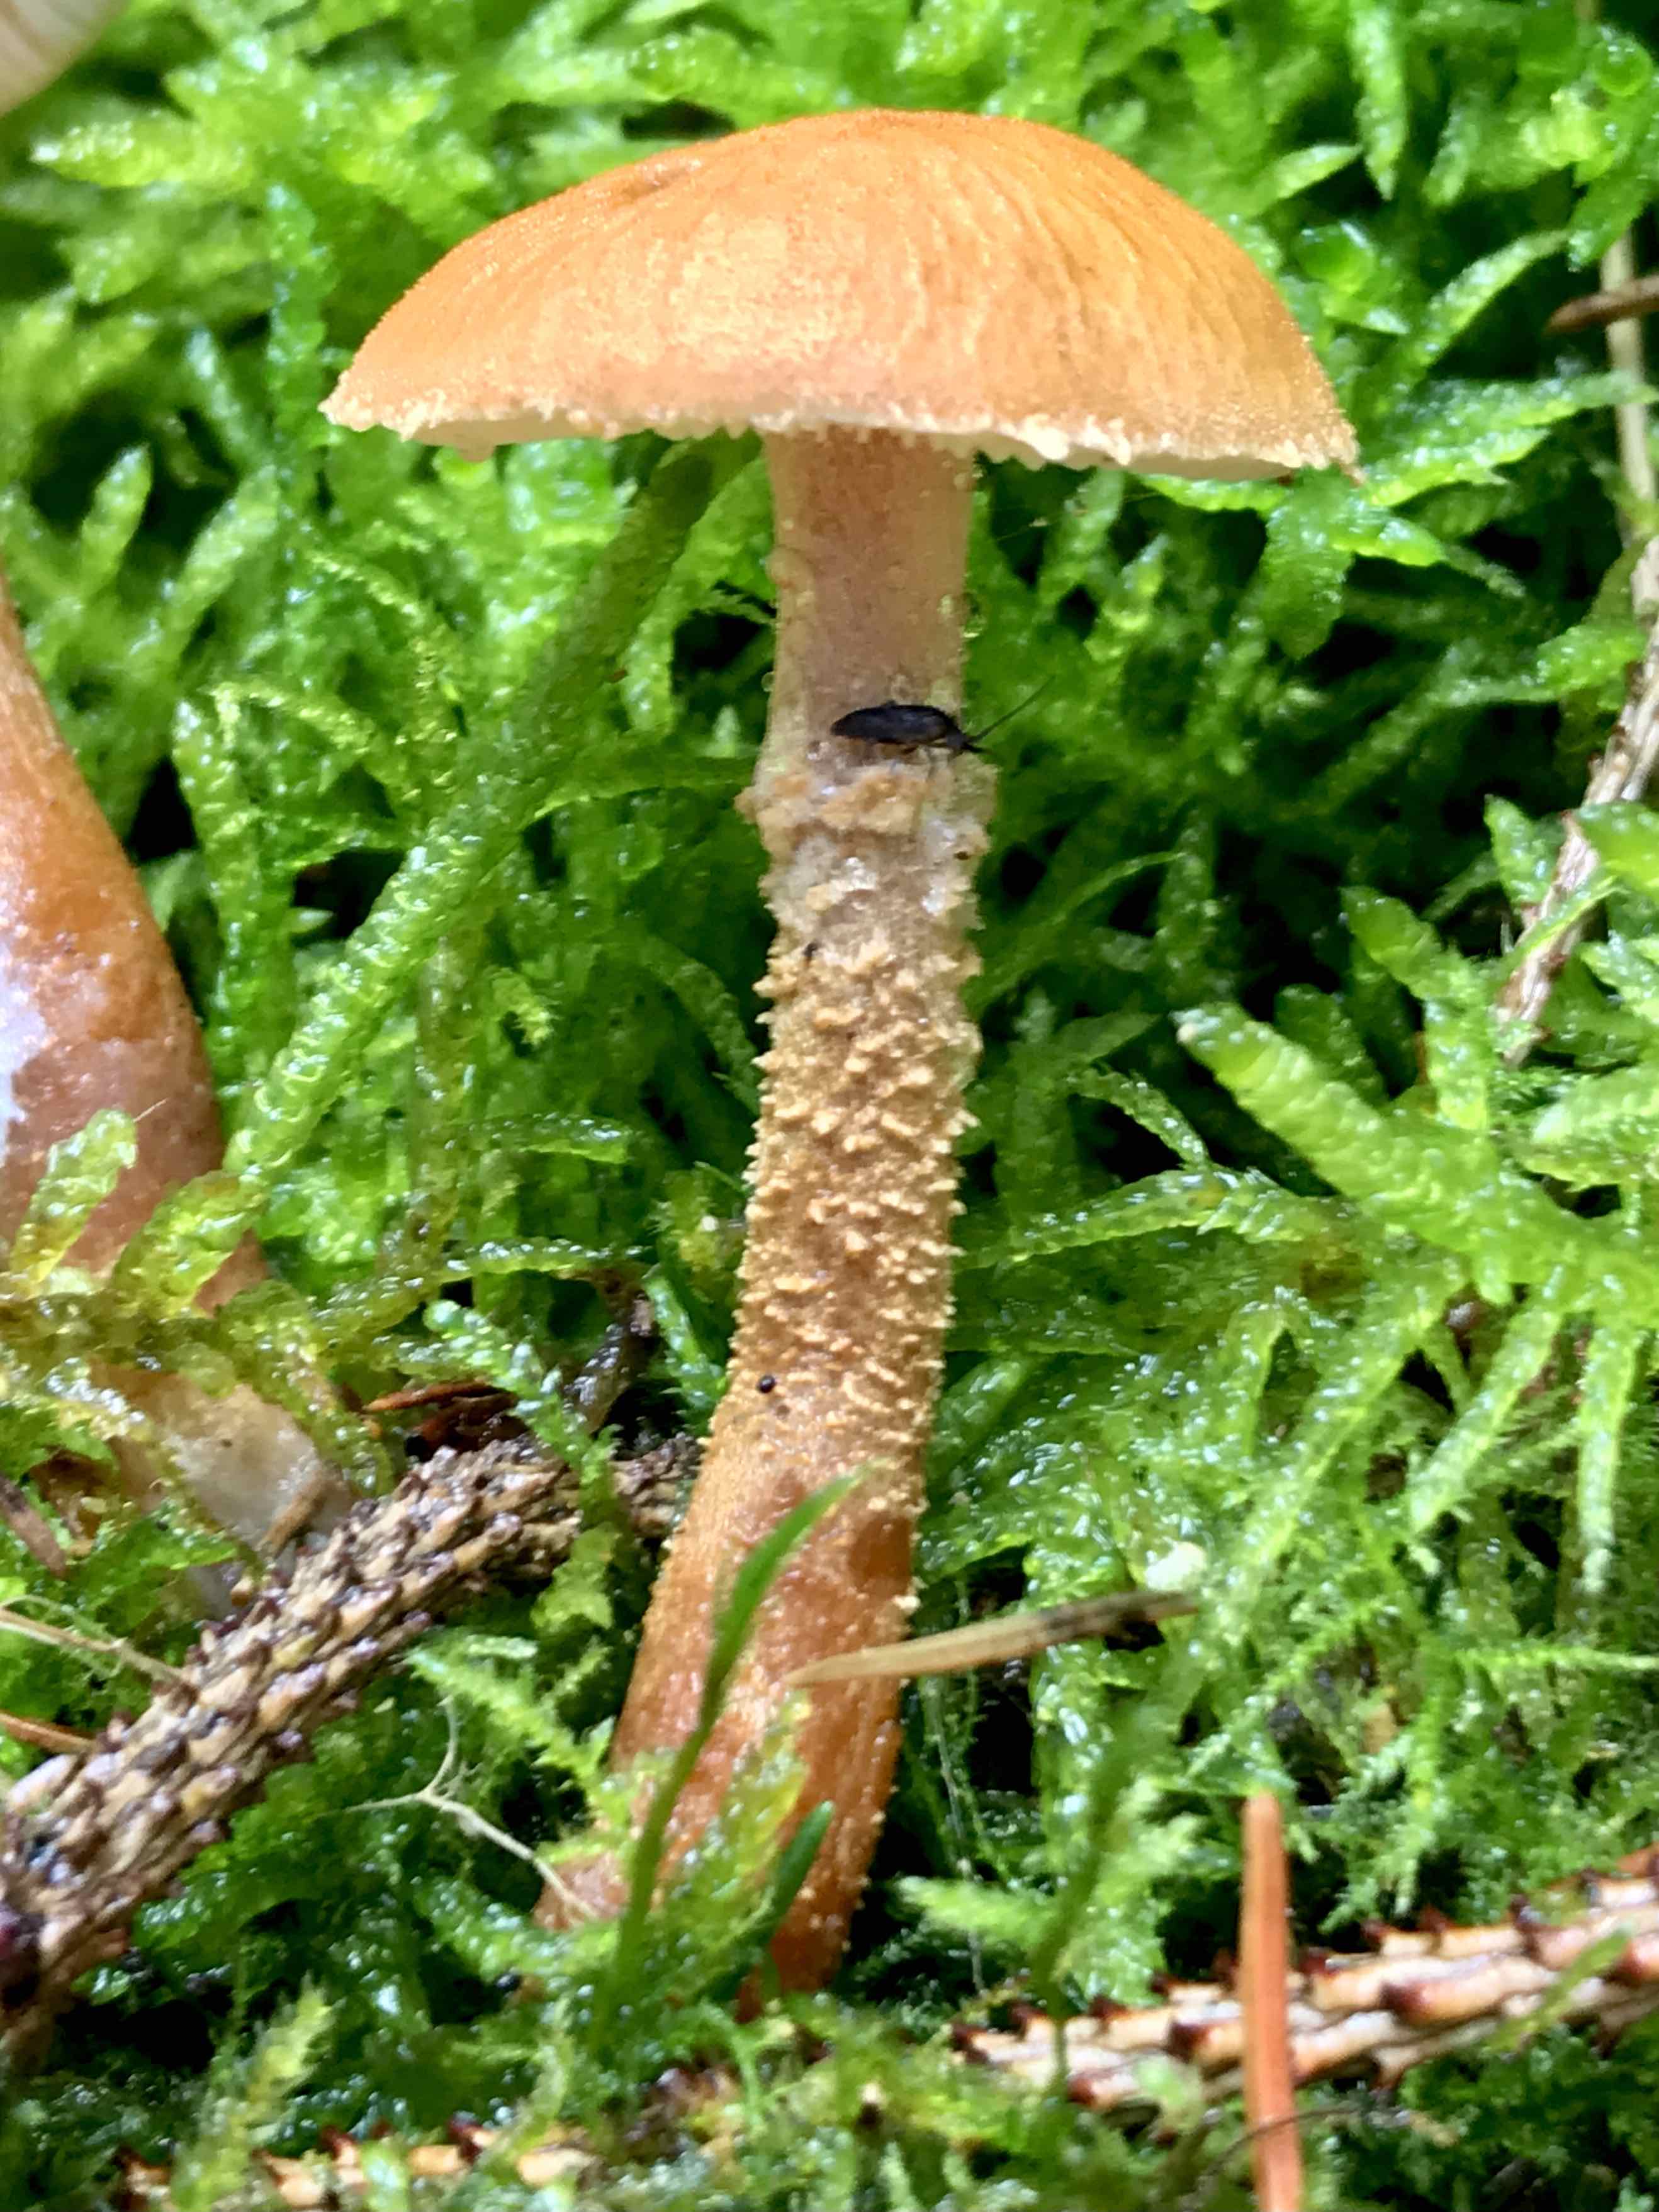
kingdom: Fungi
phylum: Basidiomycota
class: Agaricomycetes
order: Agaricales
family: Tricholomataceae
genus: Cystoderma
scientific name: Cystoderma amianthinum
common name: okkergul grynhat
